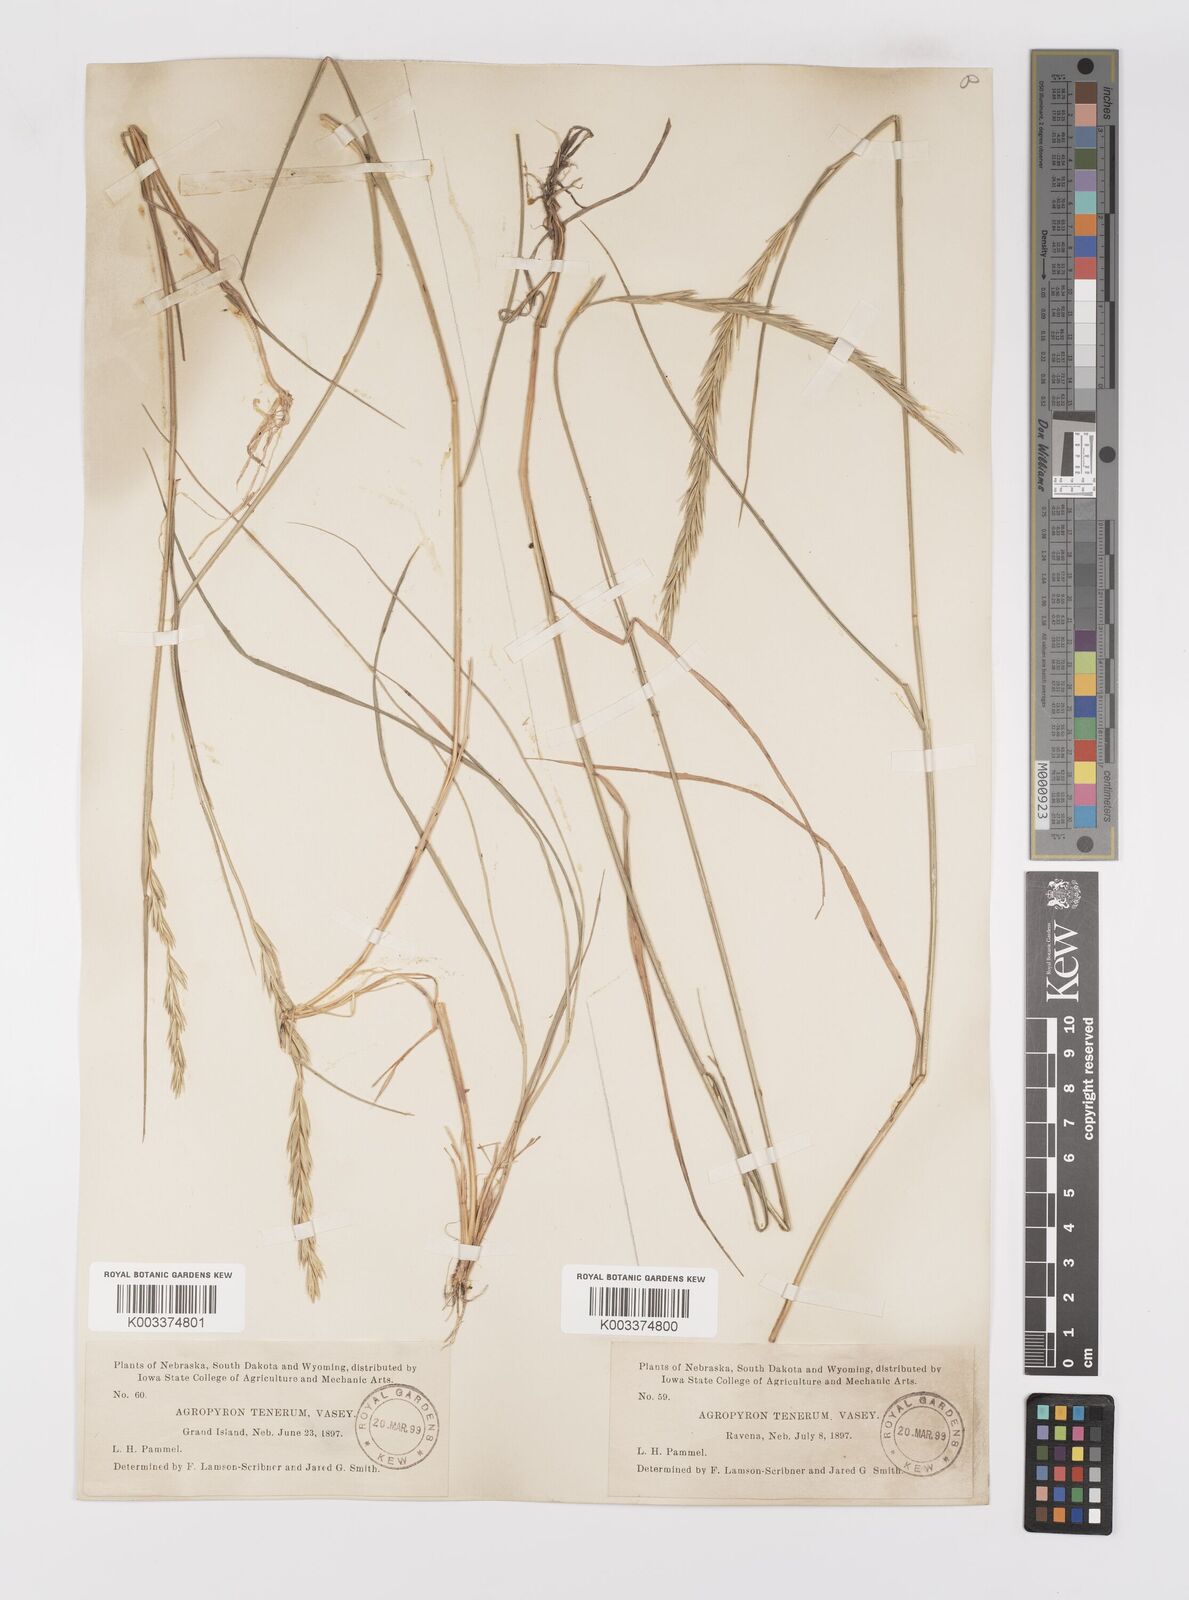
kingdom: Plantae
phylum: Tracheophyta
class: Liliopsida
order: Poales
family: Poaceae
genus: Elymus
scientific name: Elymus violaceus
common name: Arctic wheatgrass
